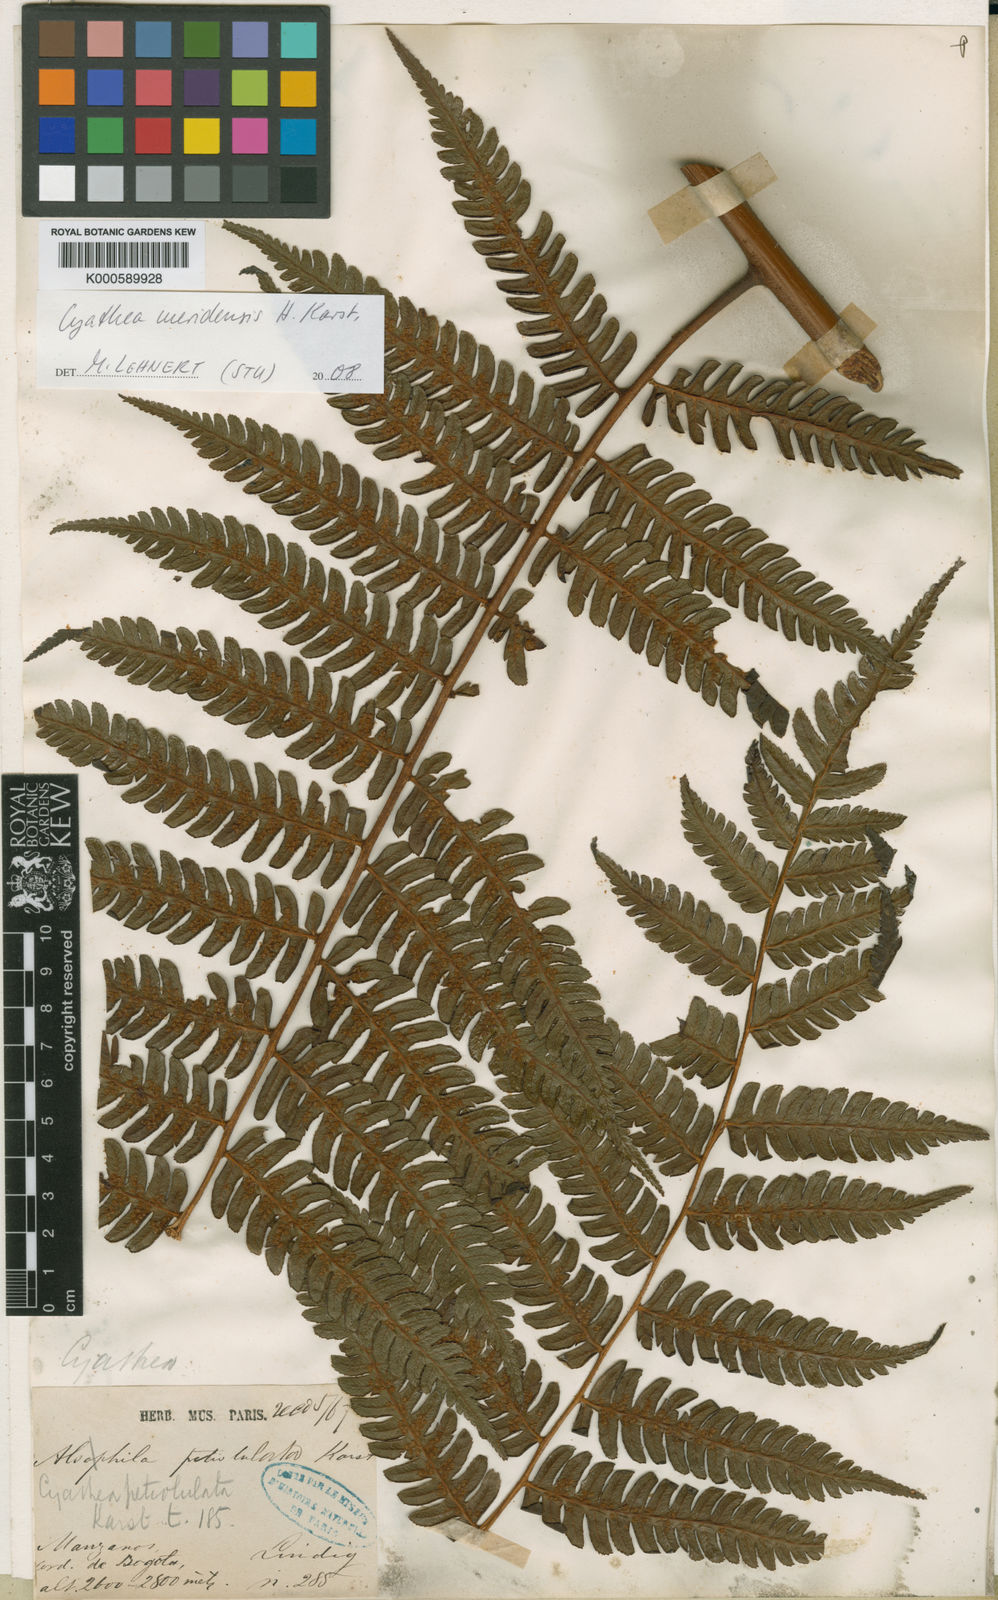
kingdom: Plantae
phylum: Tracheophyta
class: Polypodiopsida
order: Cyatheales
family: Cyatheaceae
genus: Cyathea
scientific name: Cyathea caracasana
